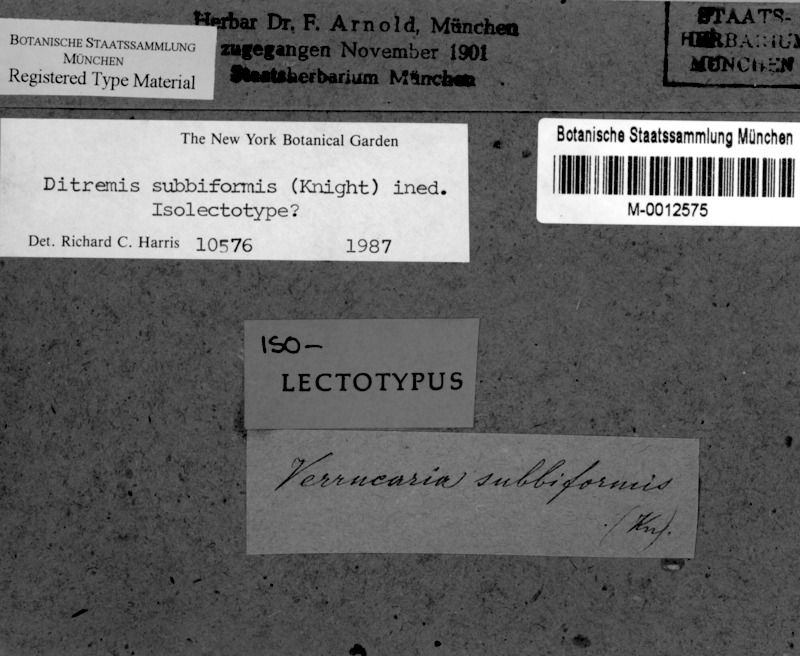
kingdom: Fungi
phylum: Ascomycota
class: Dothideomycetes
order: Monoblastiales
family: Monoblastiaceae
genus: Anisomeridium
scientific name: Anisomeridium
